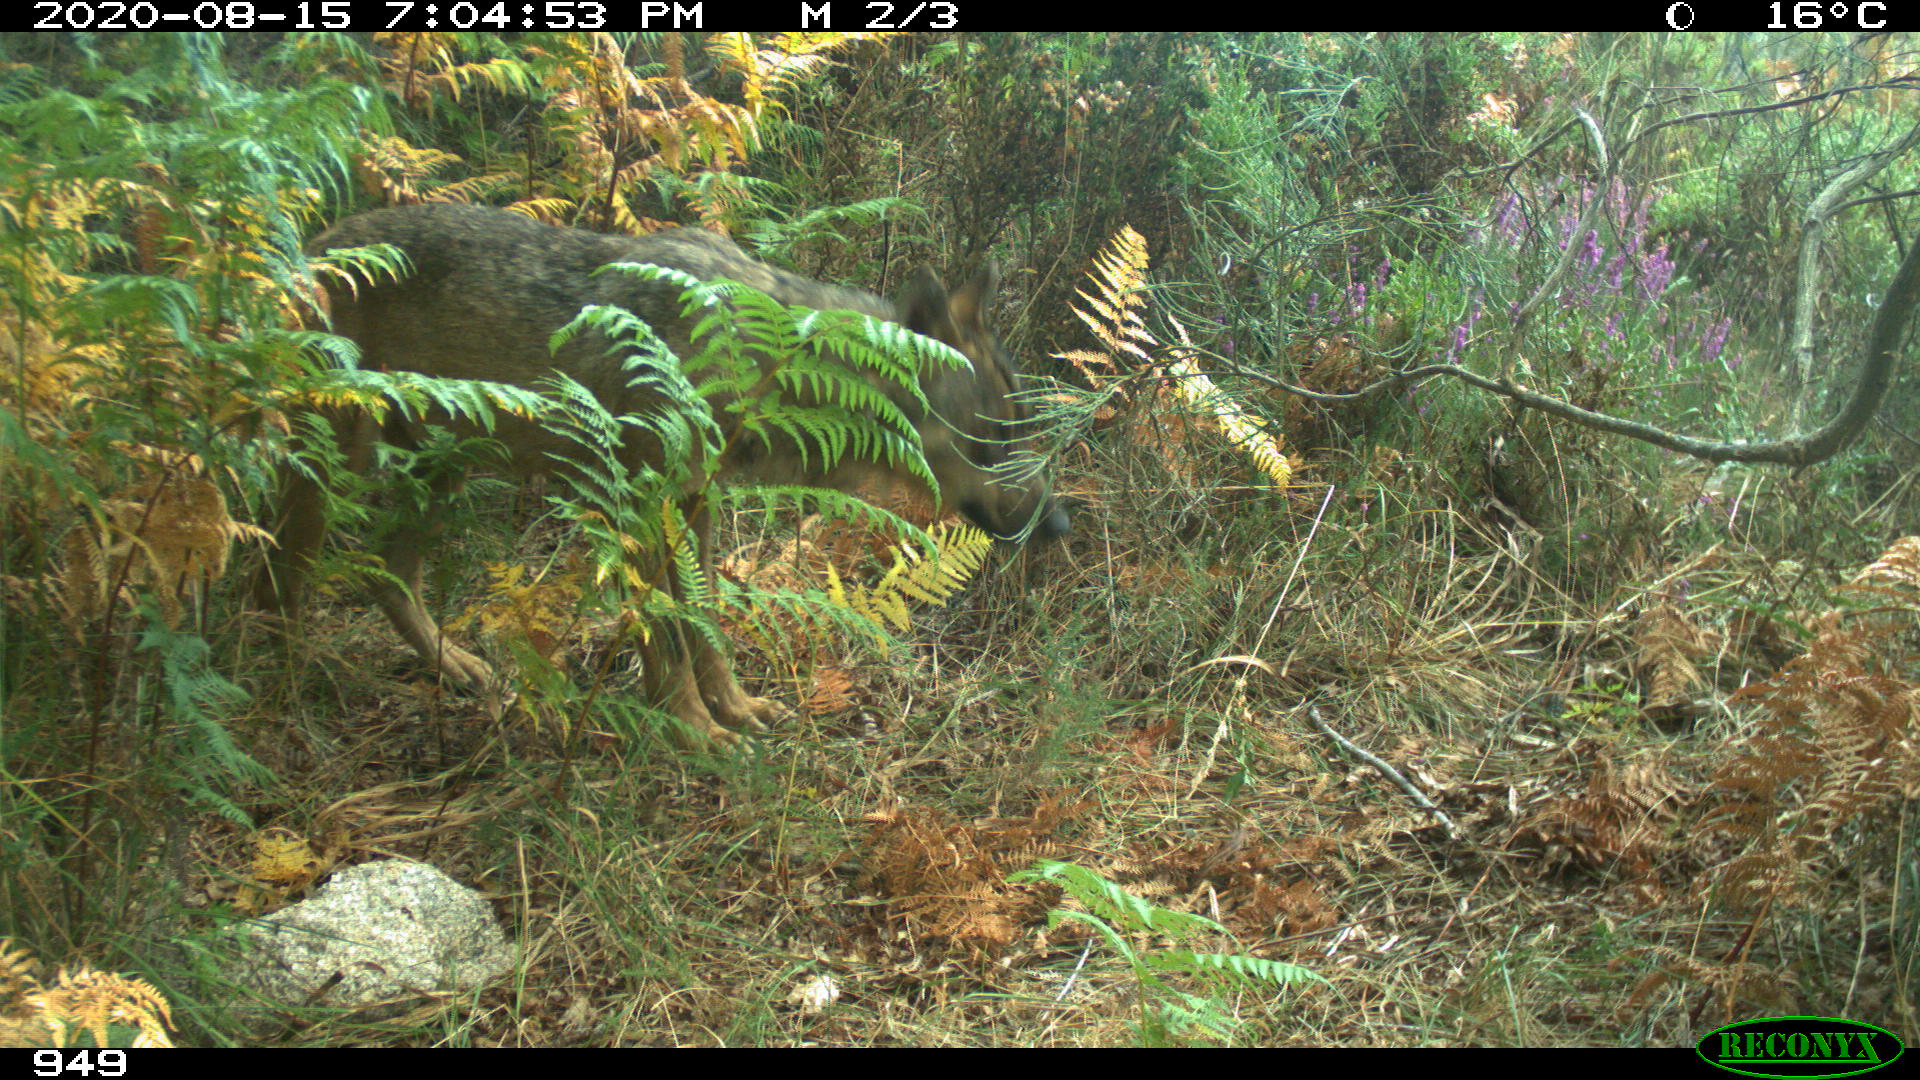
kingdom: Animalia
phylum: Chordata
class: Mammalia
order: Carnivora
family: Canidae
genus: Canis
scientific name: Canis lupus
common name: Gray wolf
